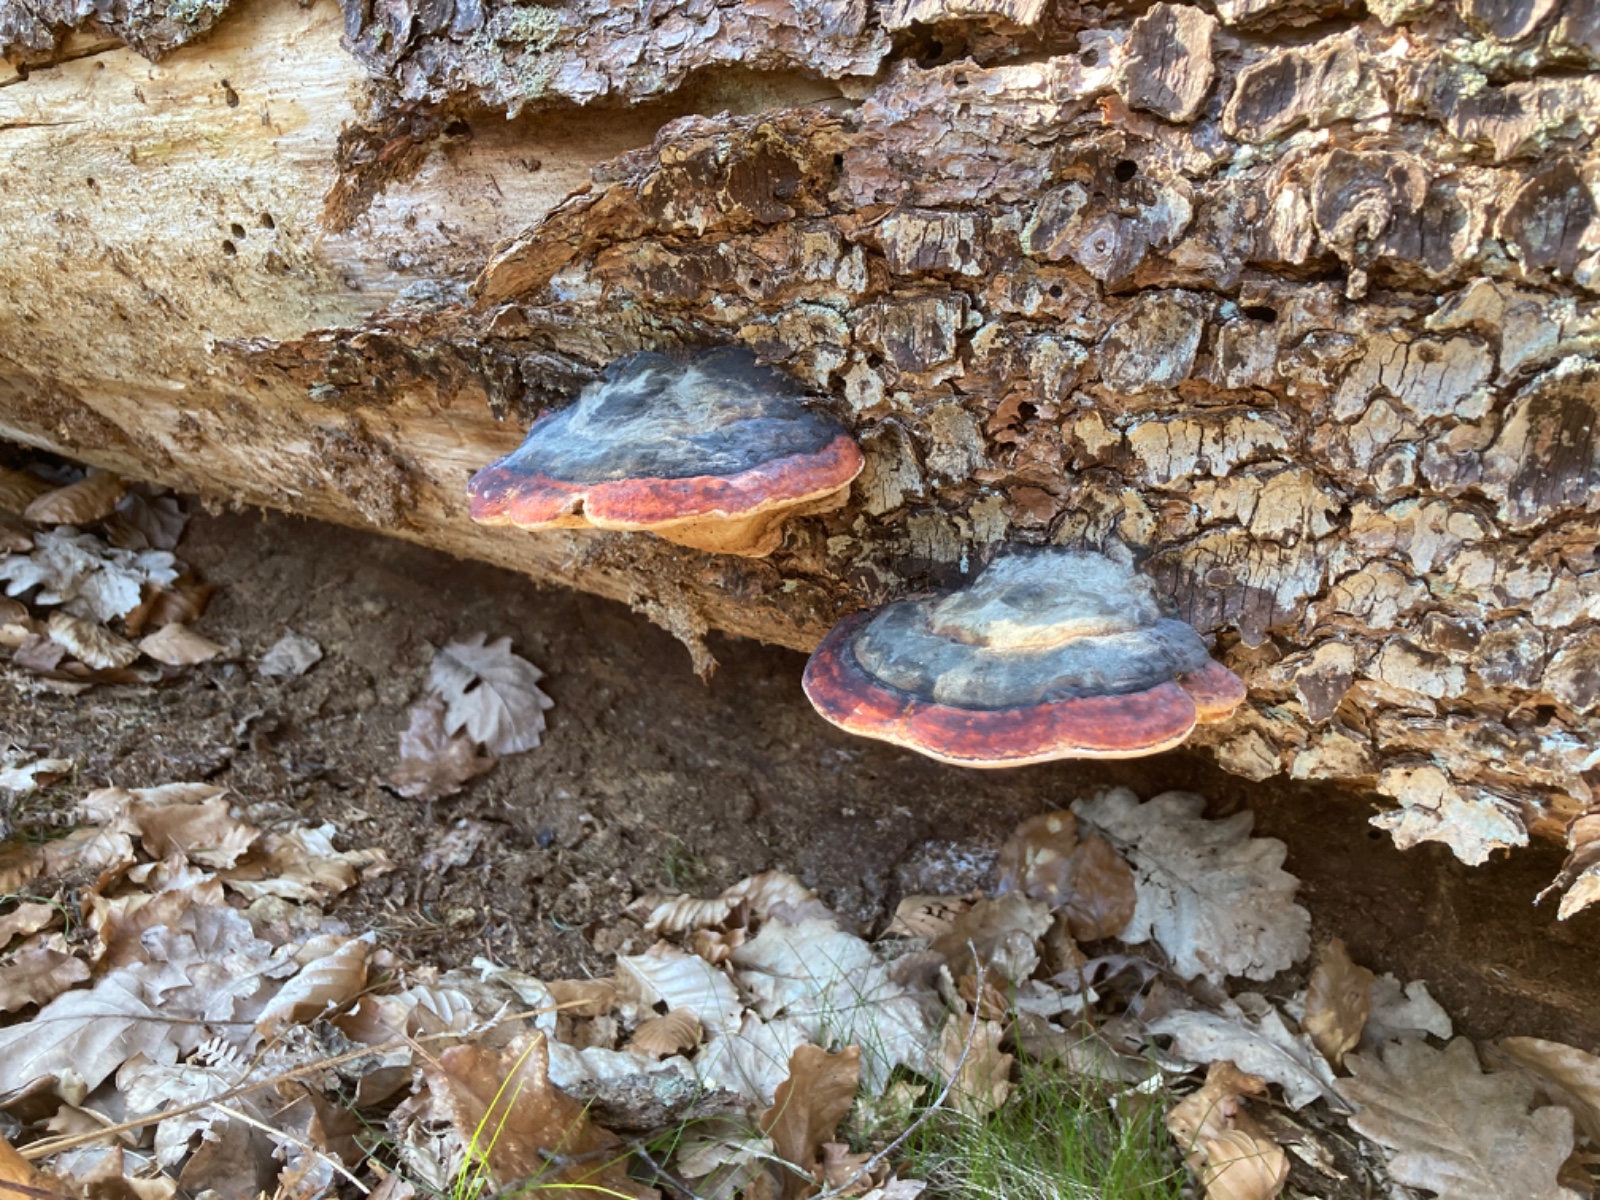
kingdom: Fungi
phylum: Basidiomycota
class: Agaricomycetes
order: Polyporales
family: Fomitopsidaceae
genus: Fomitopsis
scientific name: Fomitopsis pinicola
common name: randbæltet hovporesvamp
